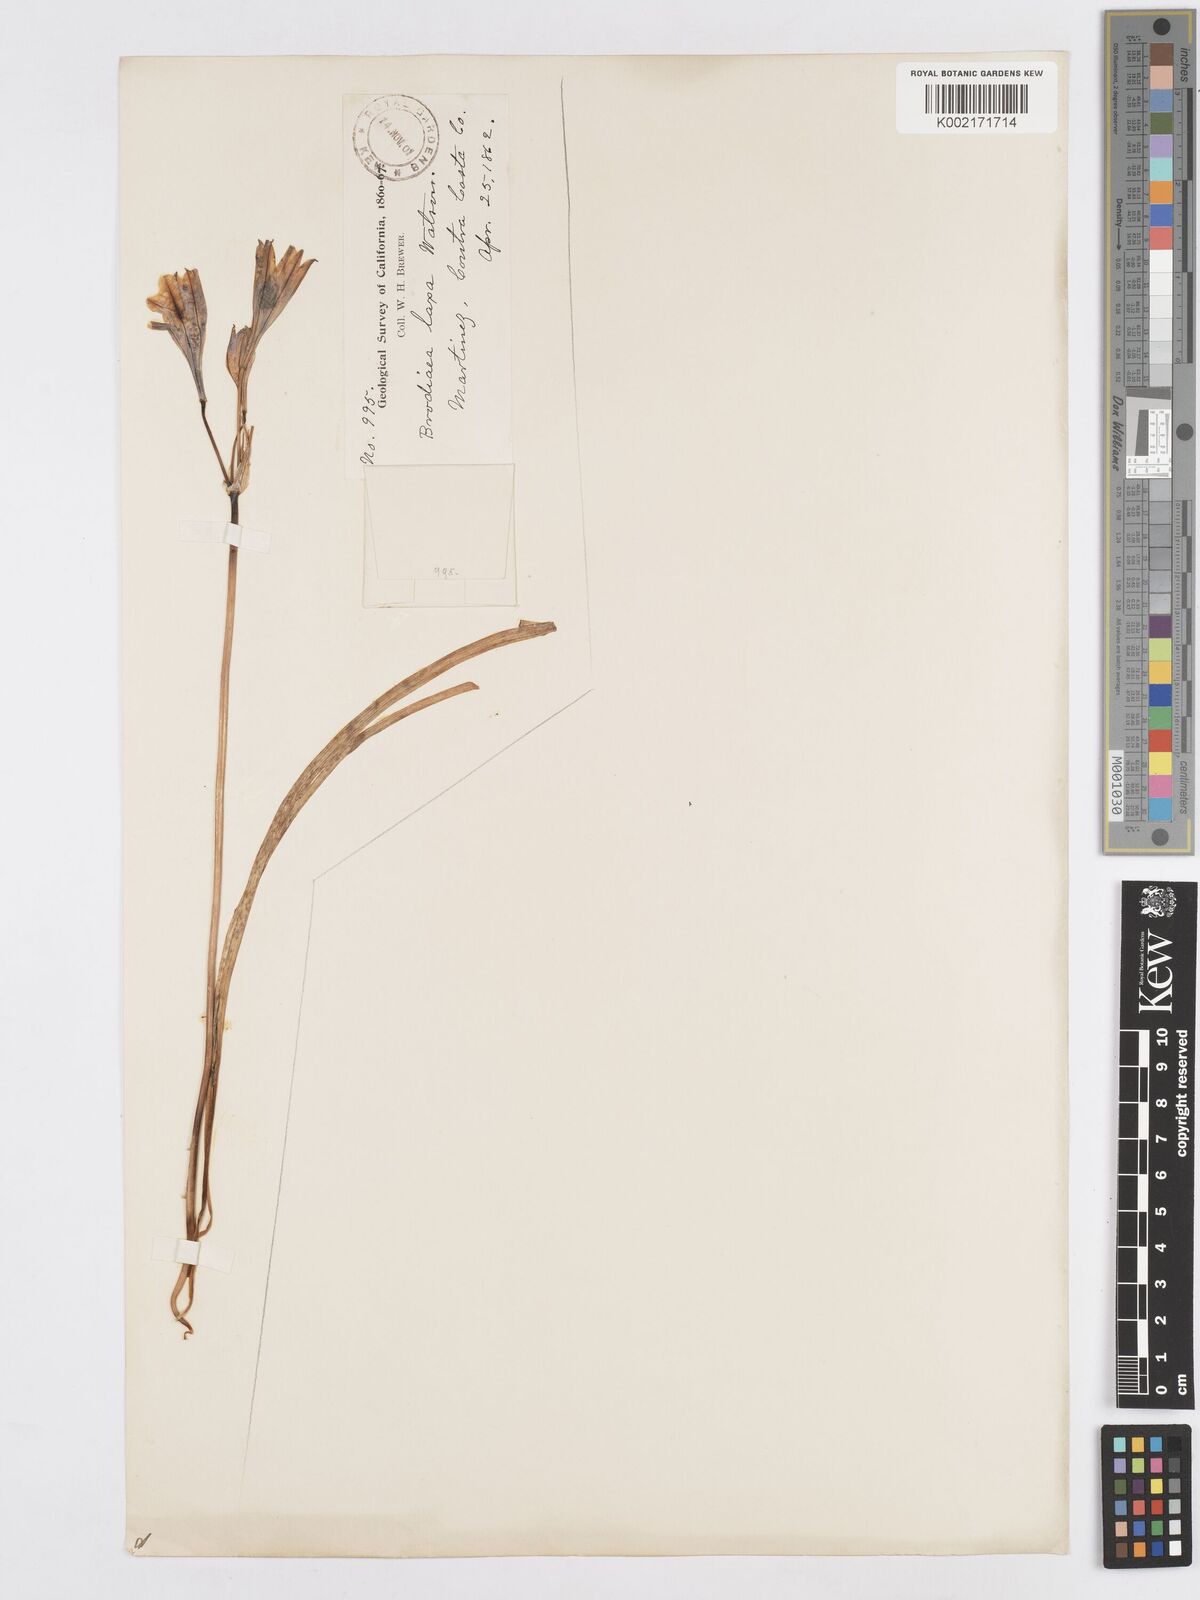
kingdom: Plantae
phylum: Tracheophyta
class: Liliopsida
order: Asparagales
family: Asparagaceae
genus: Triteleia
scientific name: Triteleia laxa
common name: Triplet-lily
